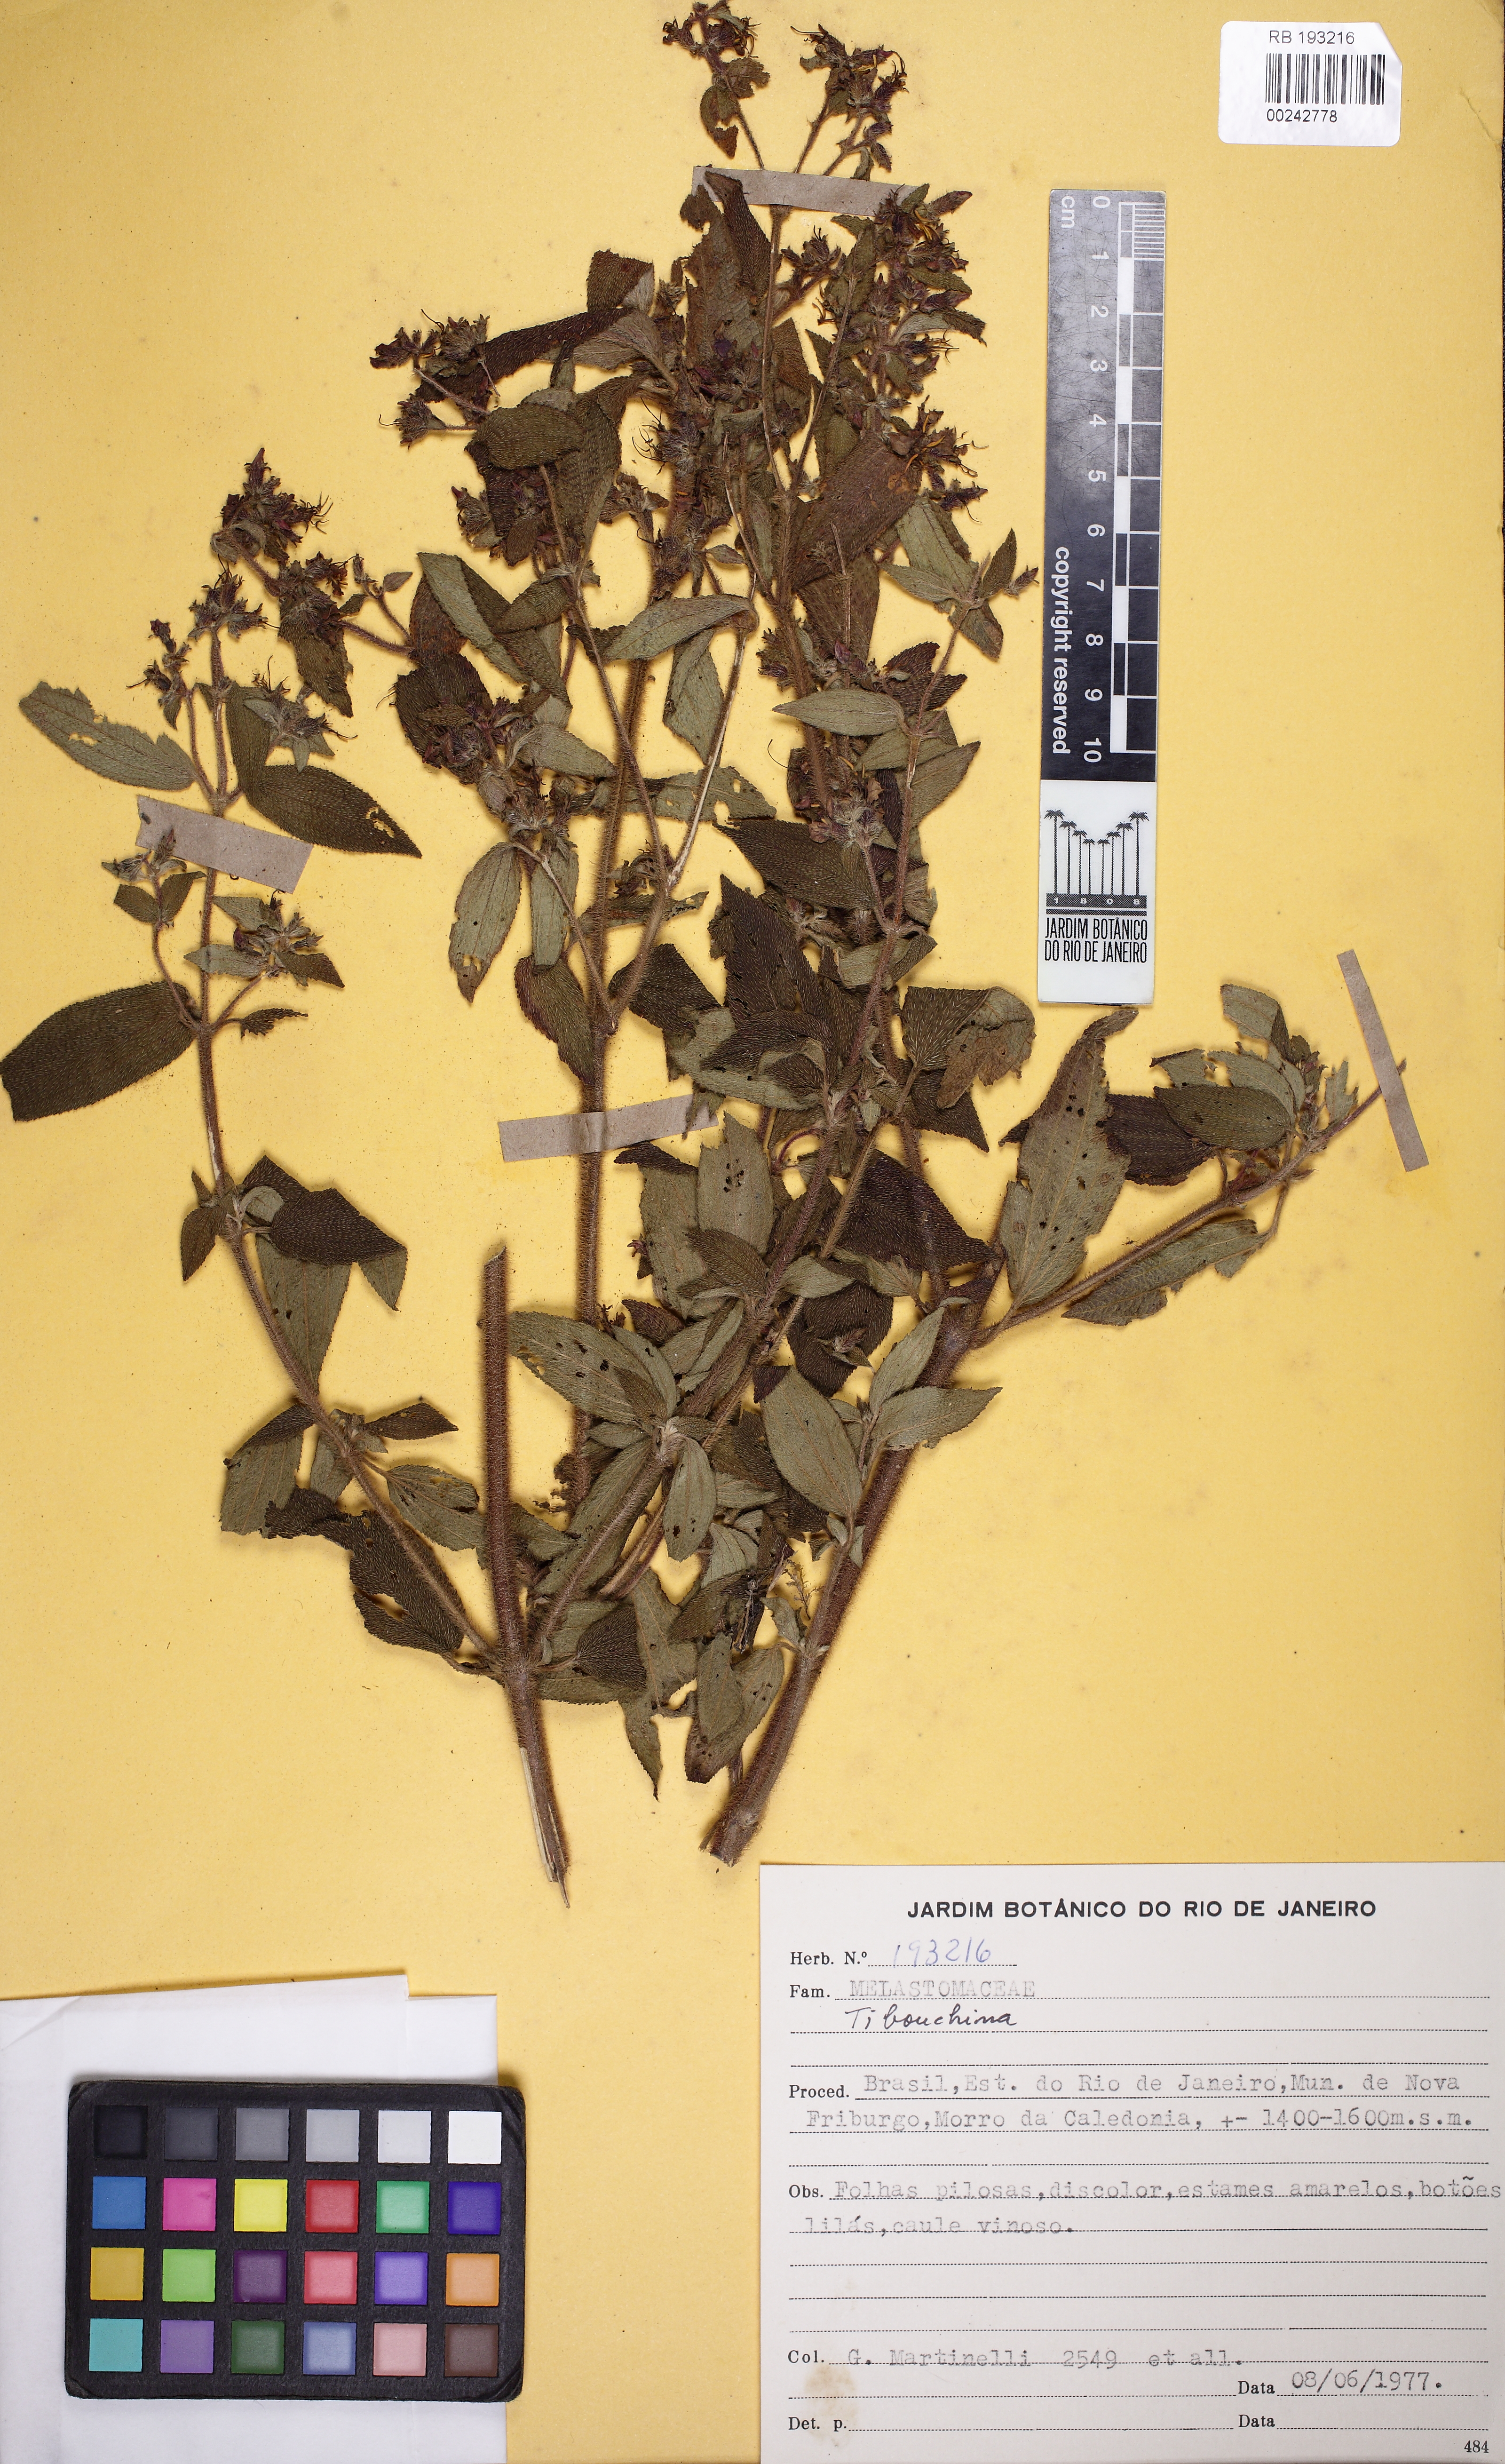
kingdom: Plantae
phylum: Tracheophyta
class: Magnoliopsida
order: Myrtales
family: Melastomataceae
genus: Tibouchina
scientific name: Tibouchina
